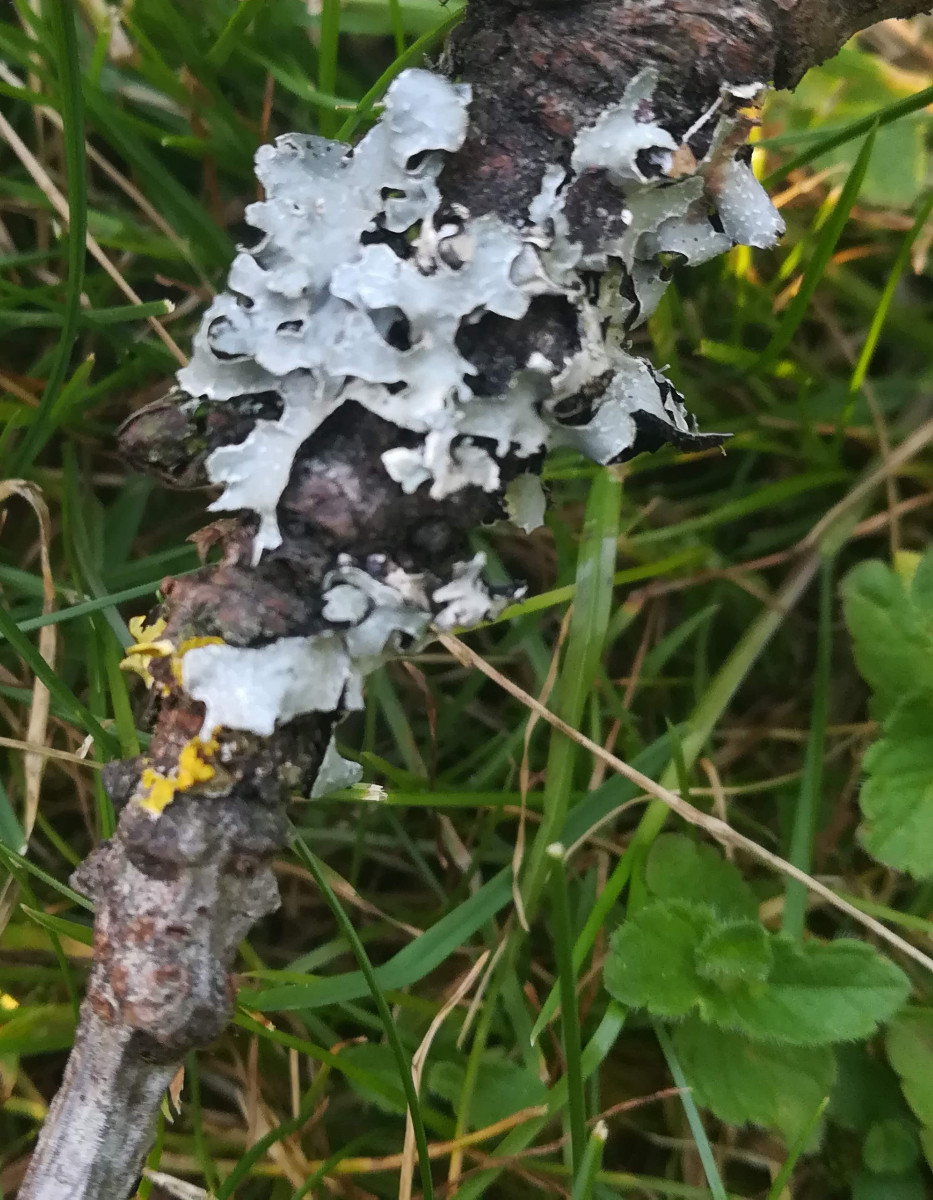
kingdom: Fungi
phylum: Ascomycota
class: Lecanoromycetes
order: Lecanorales
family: Parmeliaceae
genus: Parmelia
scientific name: Parmelia sulcata
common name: rynket skållav
